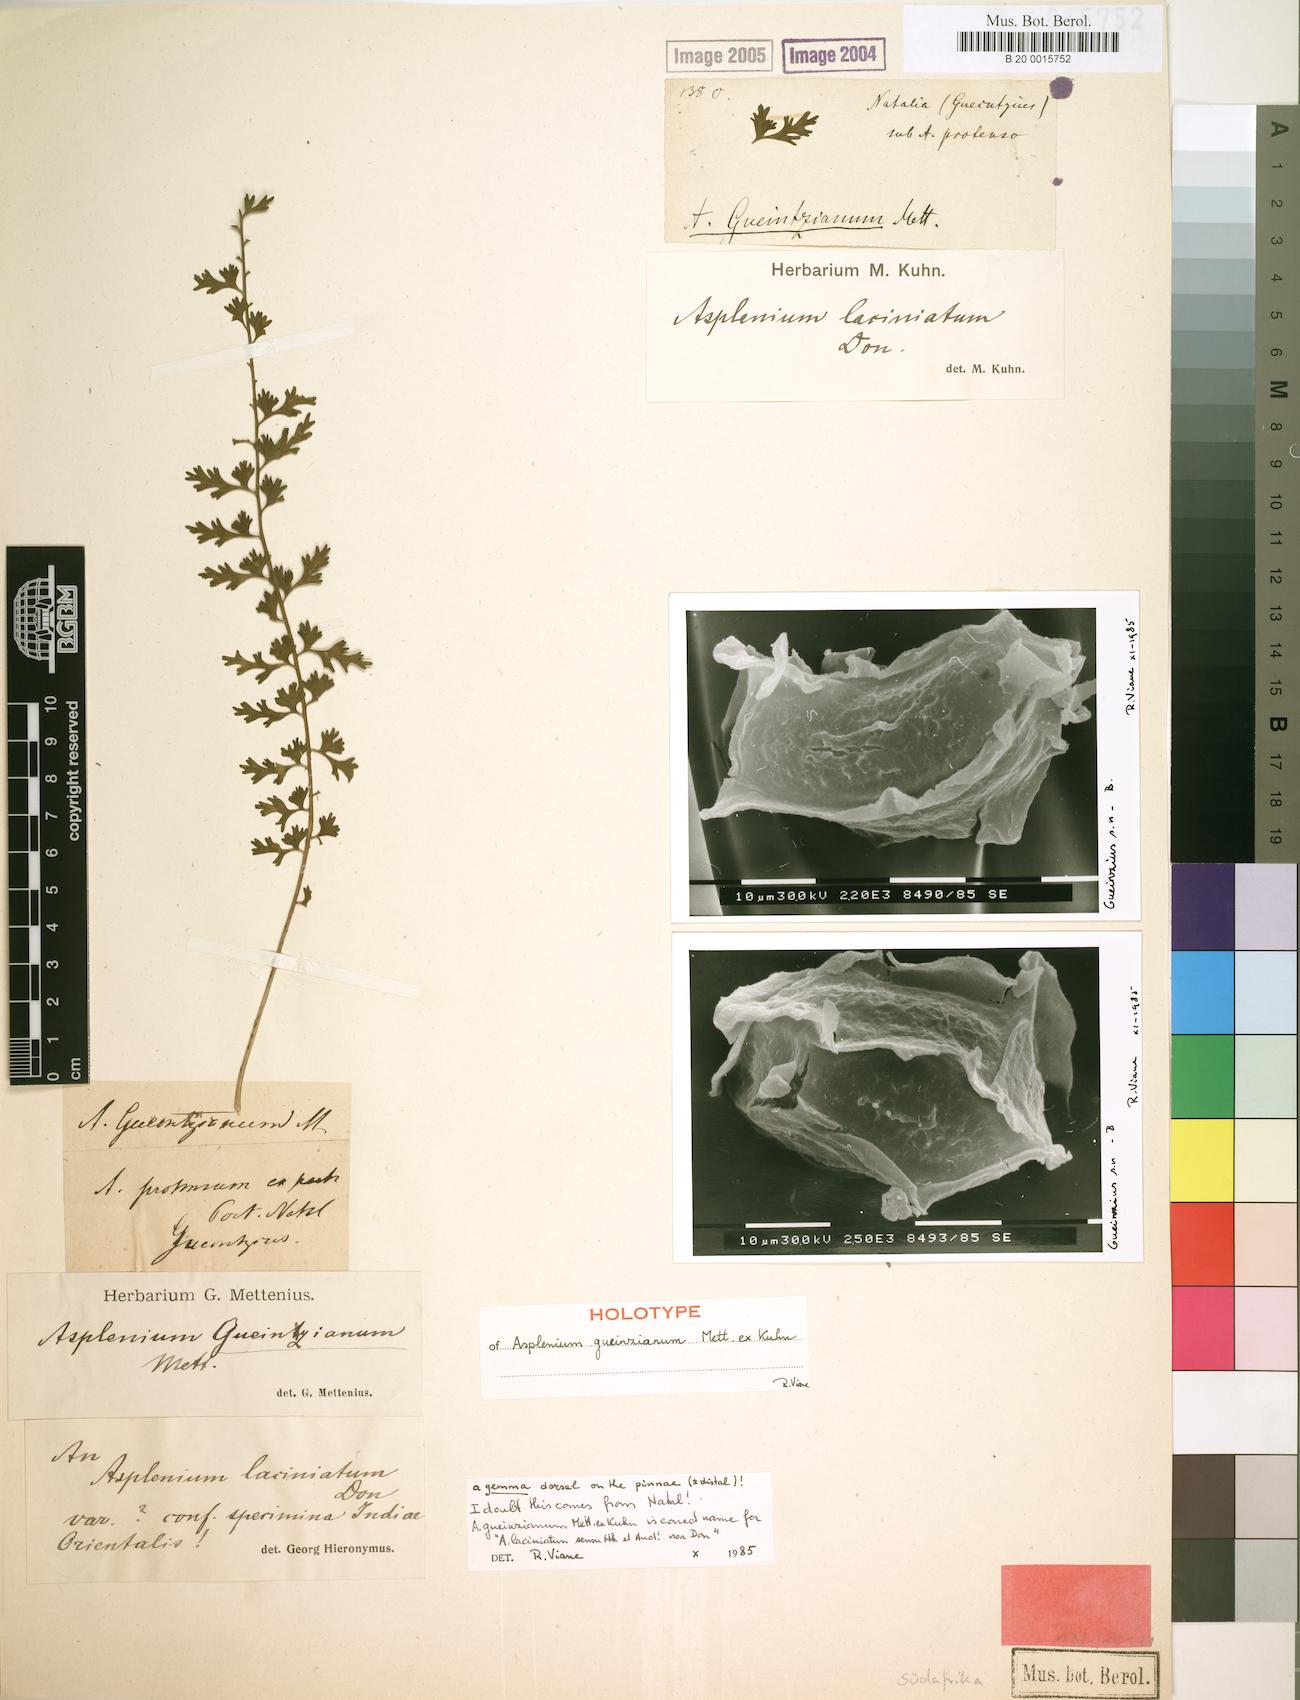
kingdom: Plantae
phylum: Tracheophyta
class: Polypodiopsida
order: Polypodiales
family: Aspleniaceae
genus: Asplenium
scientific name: Asplenium lacinioides
